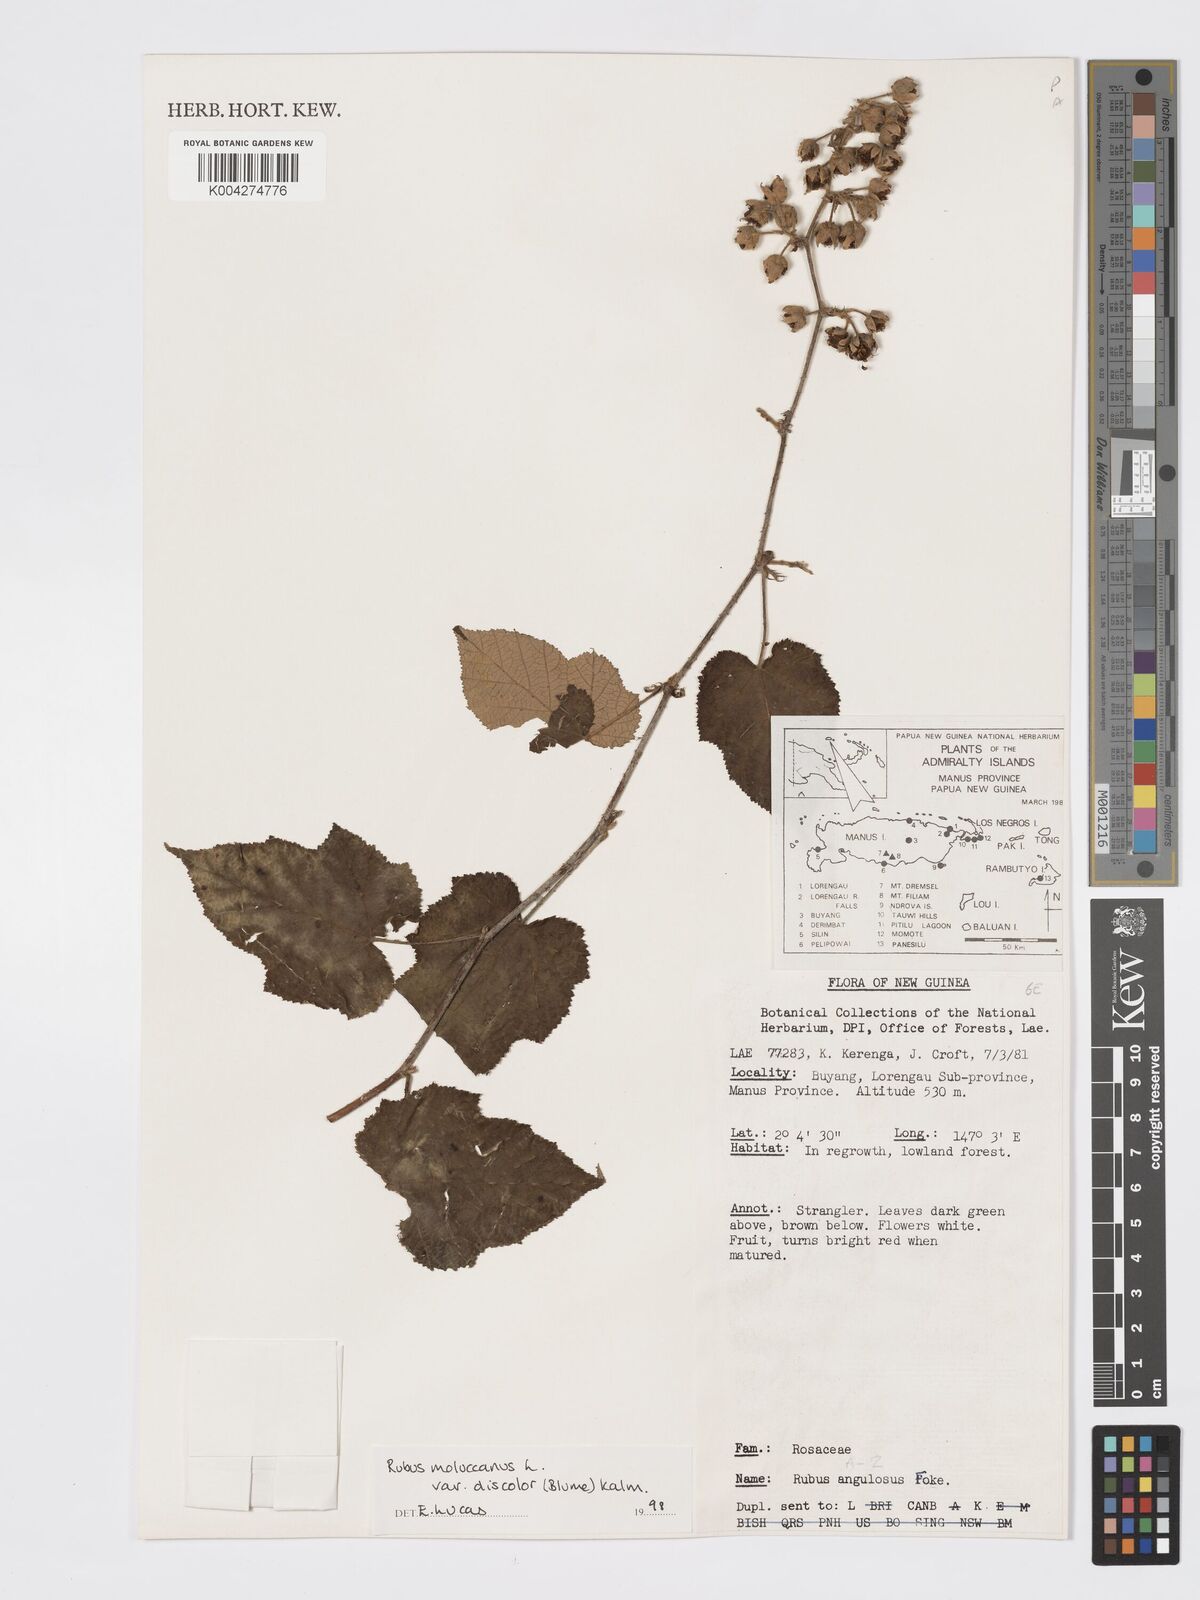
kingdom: Plantae
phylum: Tracheophyta
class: Magnoliopsida
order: Rosales
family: Rosaceae
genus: Rubus
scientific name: Rubus moluccanus
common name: Wild raspberry
